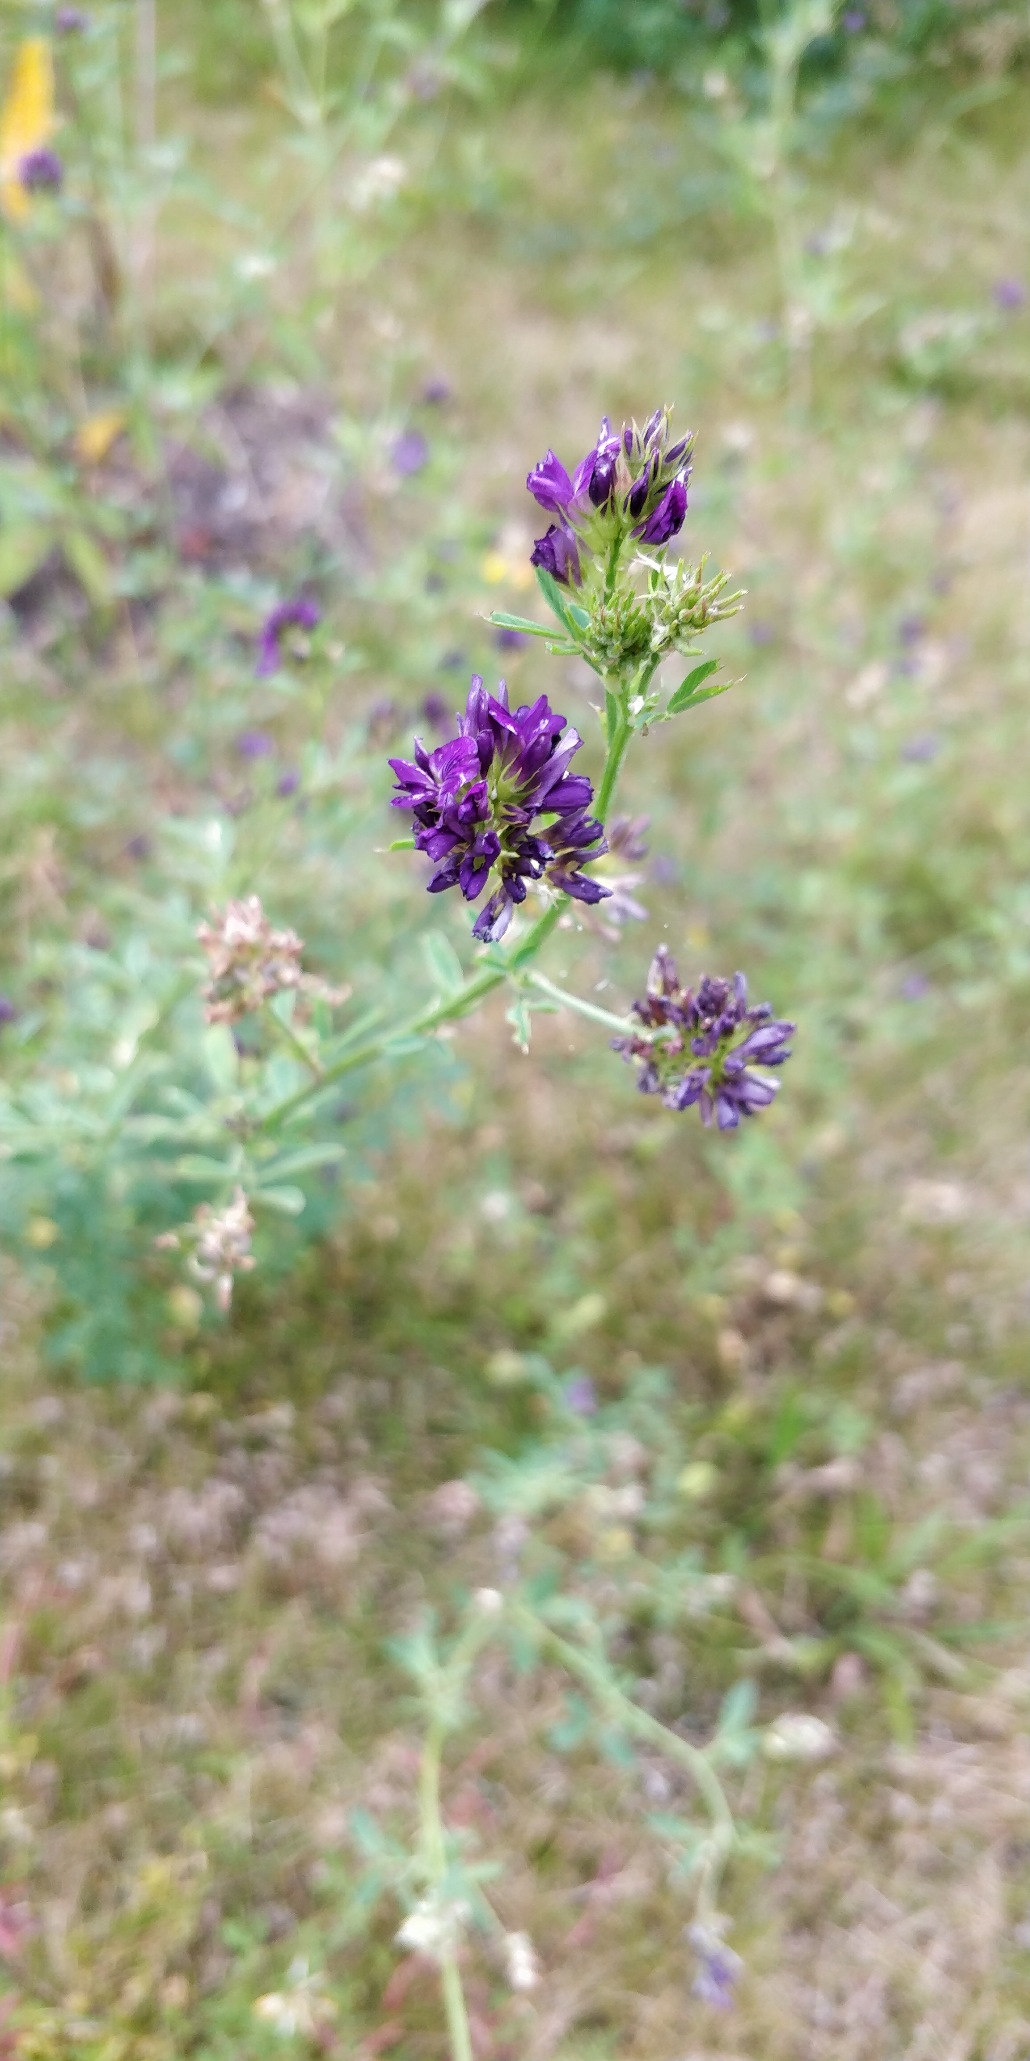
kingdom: Plantae
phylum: Tracheophyta
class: Magnoliopsida
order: Fabales
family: Fabaceae
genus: Medicago
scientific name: Medicago sativa
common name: Lucerne
